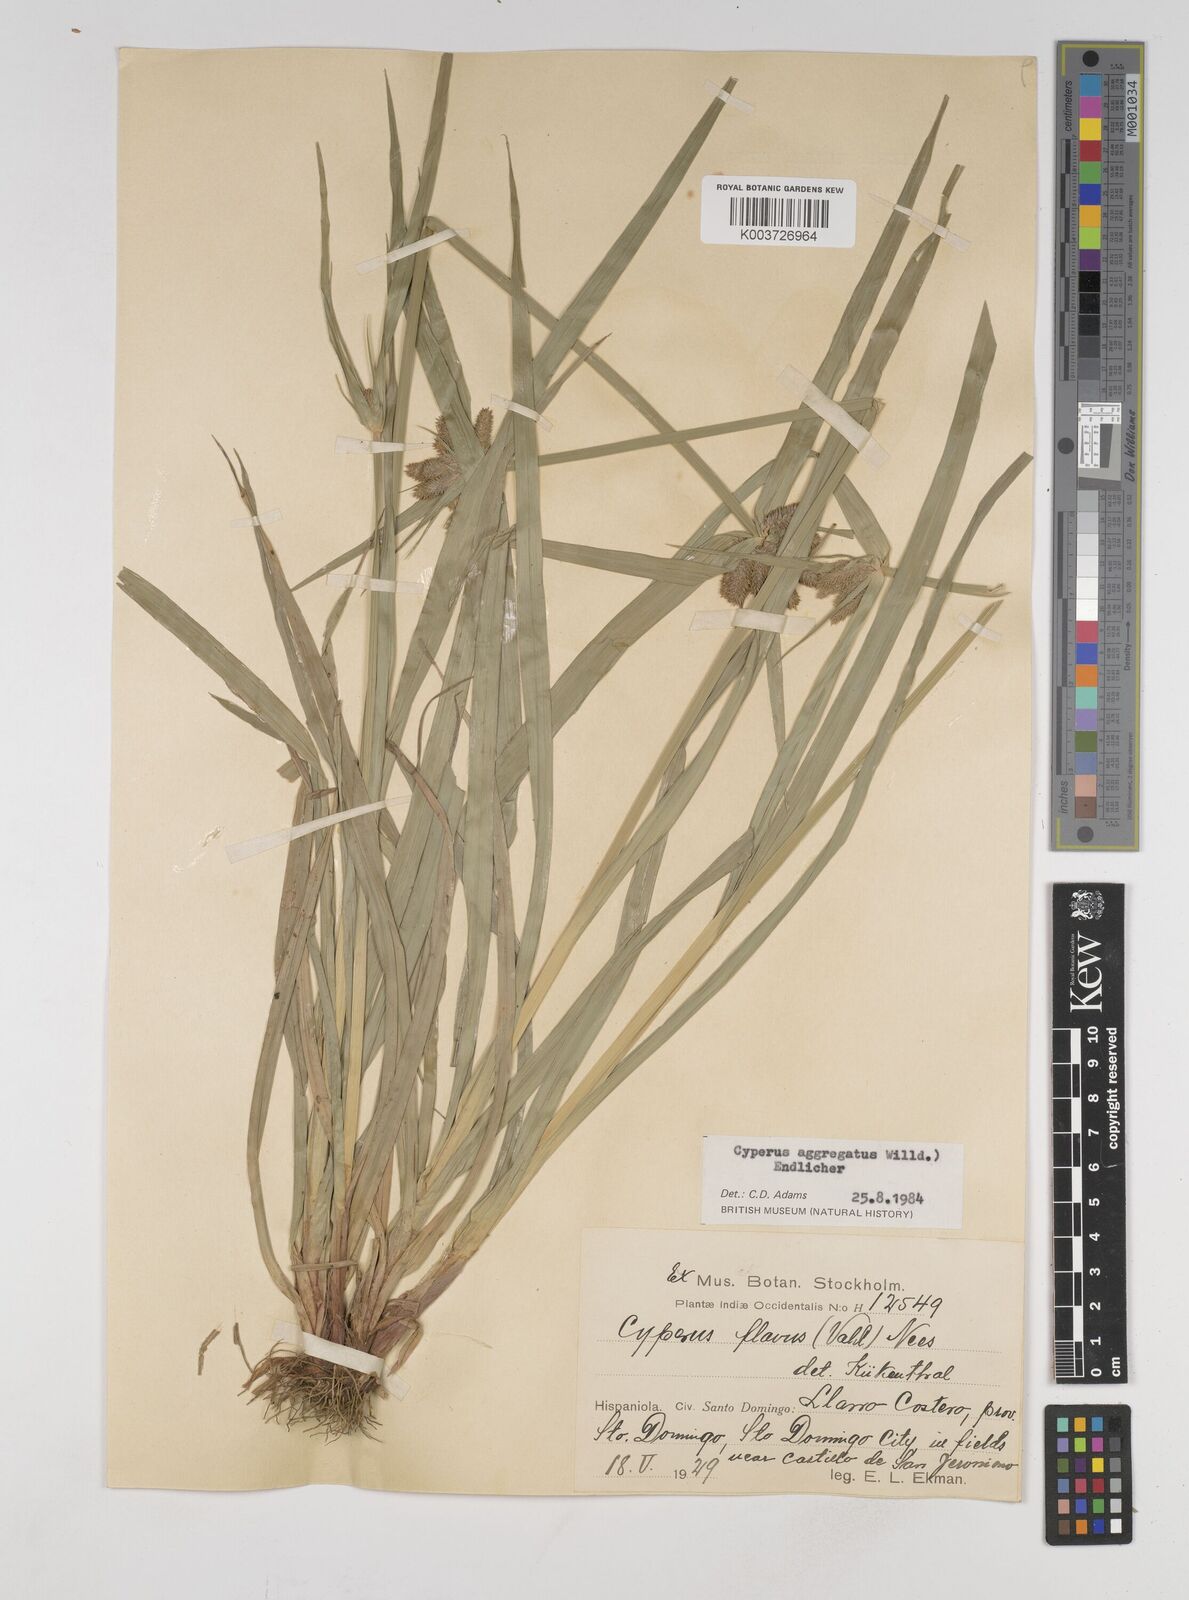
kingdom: Plantae
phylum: Tracheophyta
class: Liliopsida
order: Poales
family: Cyperaceae
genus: Cyperus
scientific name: Cyperus aggregatus
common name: Inflatedscale flatsedge
